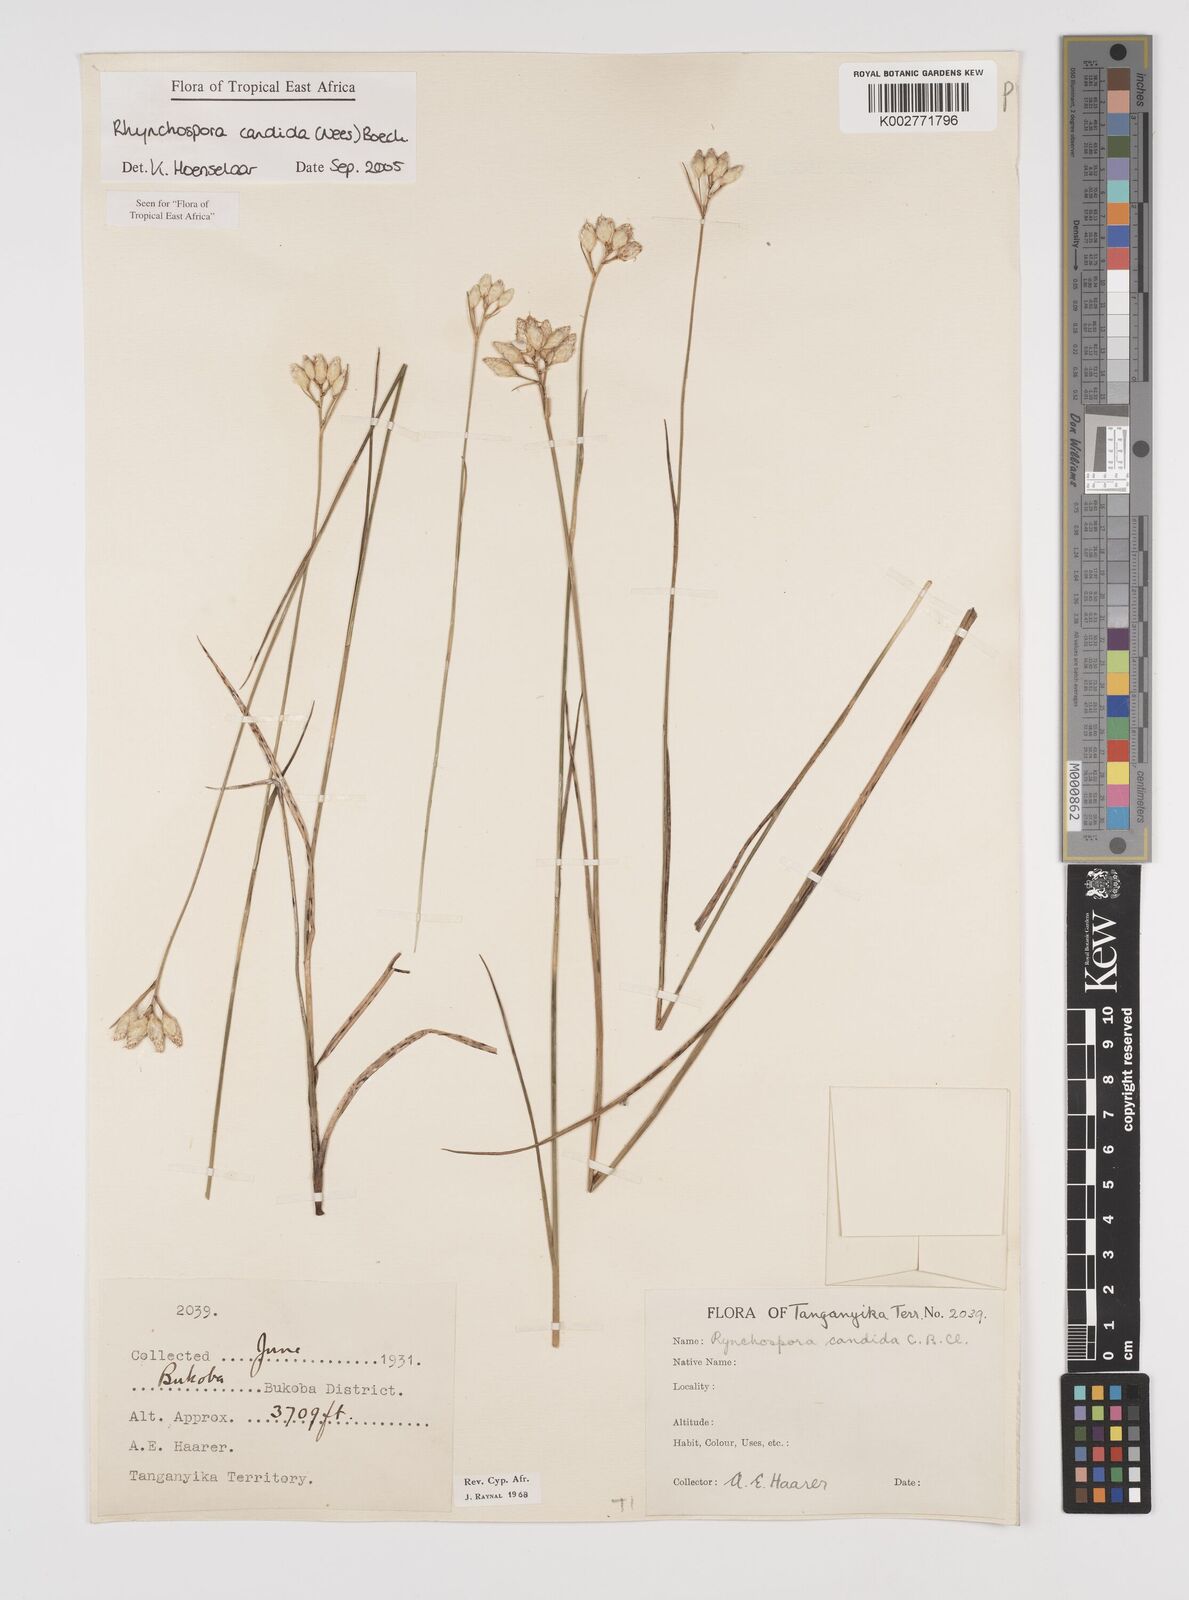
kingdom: Plantae
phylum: Tracheophyta
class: Liliopsida
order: Poales
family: Cyperaceae
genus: Rhynchospora
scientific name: Rhynchospora candida
